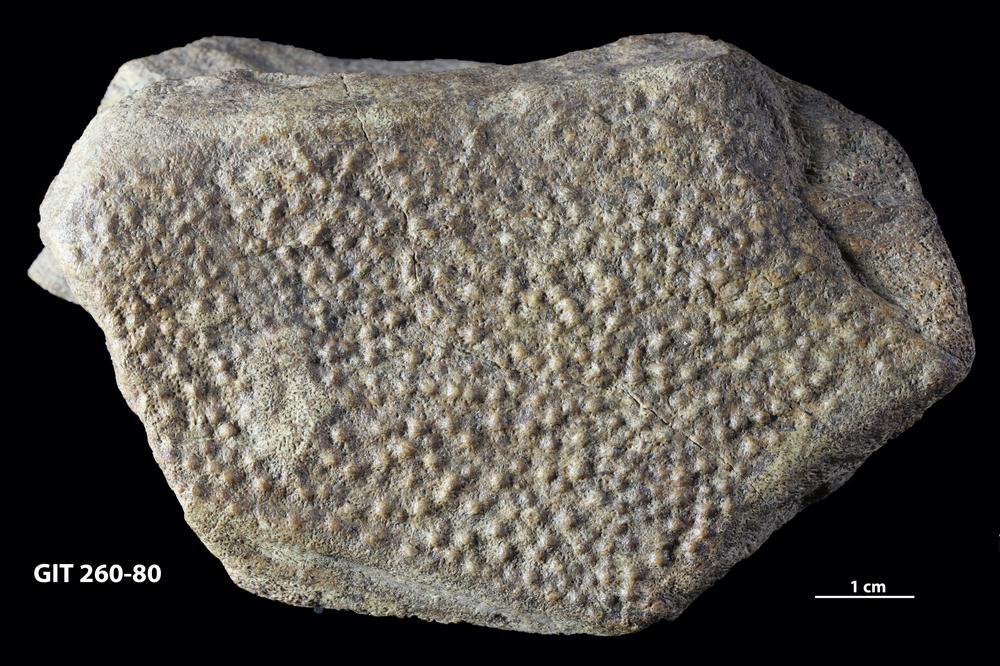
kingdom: Animalia
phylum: Chordata
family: Homostiidae
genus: Homostius
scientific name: Homostius
